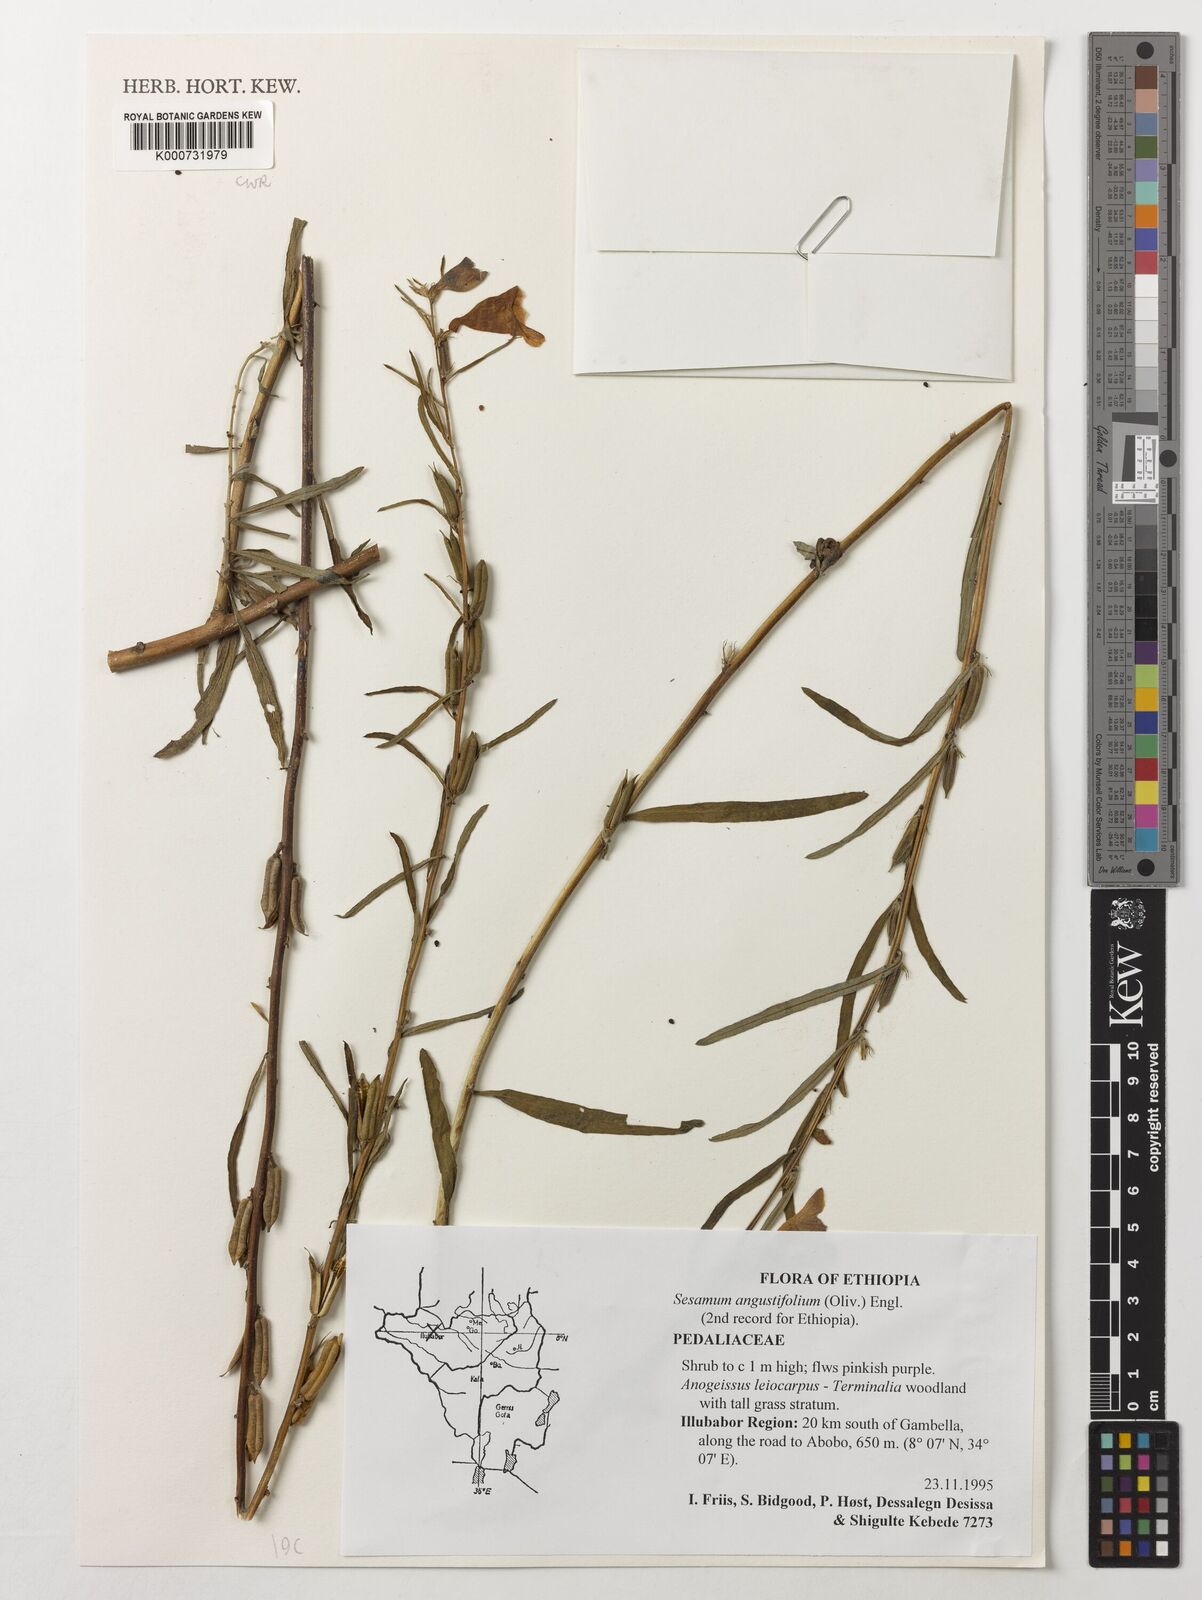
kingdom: Plantae
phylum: Tracheophyta
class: Magnoliopsida
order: Lamiales
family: Pedaliaceae
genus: Sesamum
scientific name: Sesamum angustifolium
